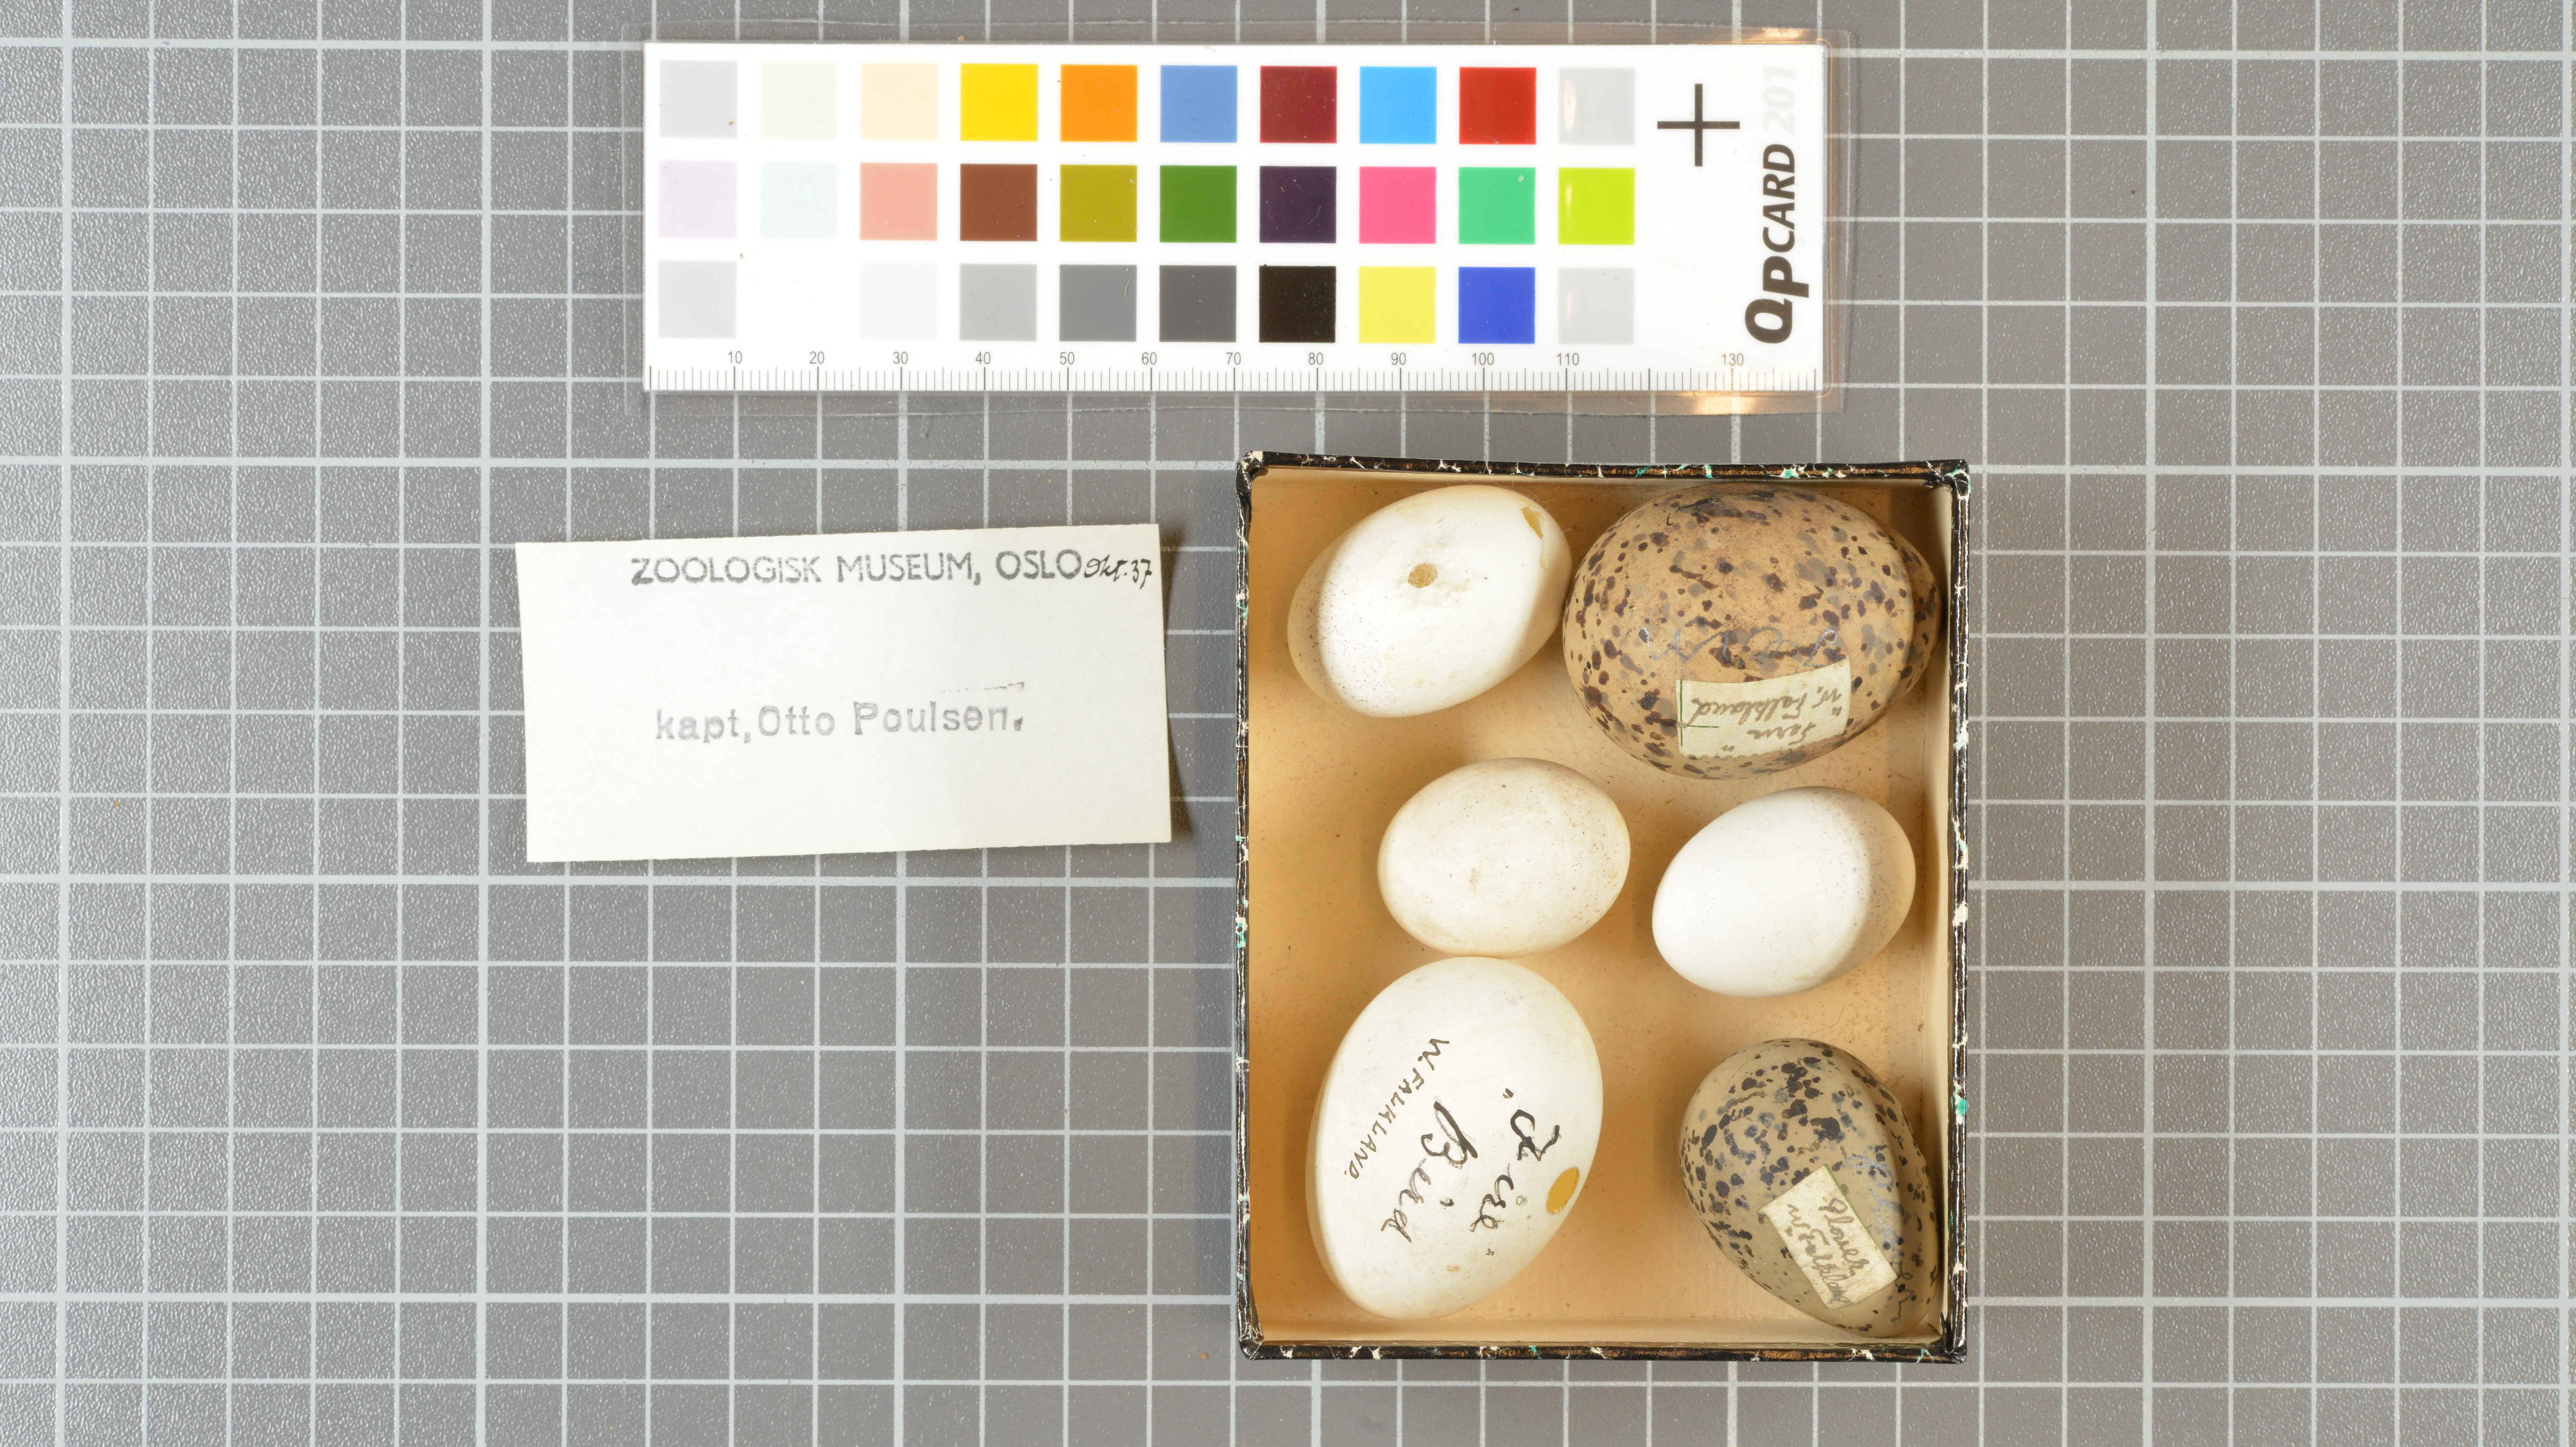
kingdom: Animalia
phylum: Chordata
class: Aves
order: Procellariiformes
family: Procellariidae
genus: Pachyptila
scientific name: Pachyptila belcheri
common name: Slender-billed prion
